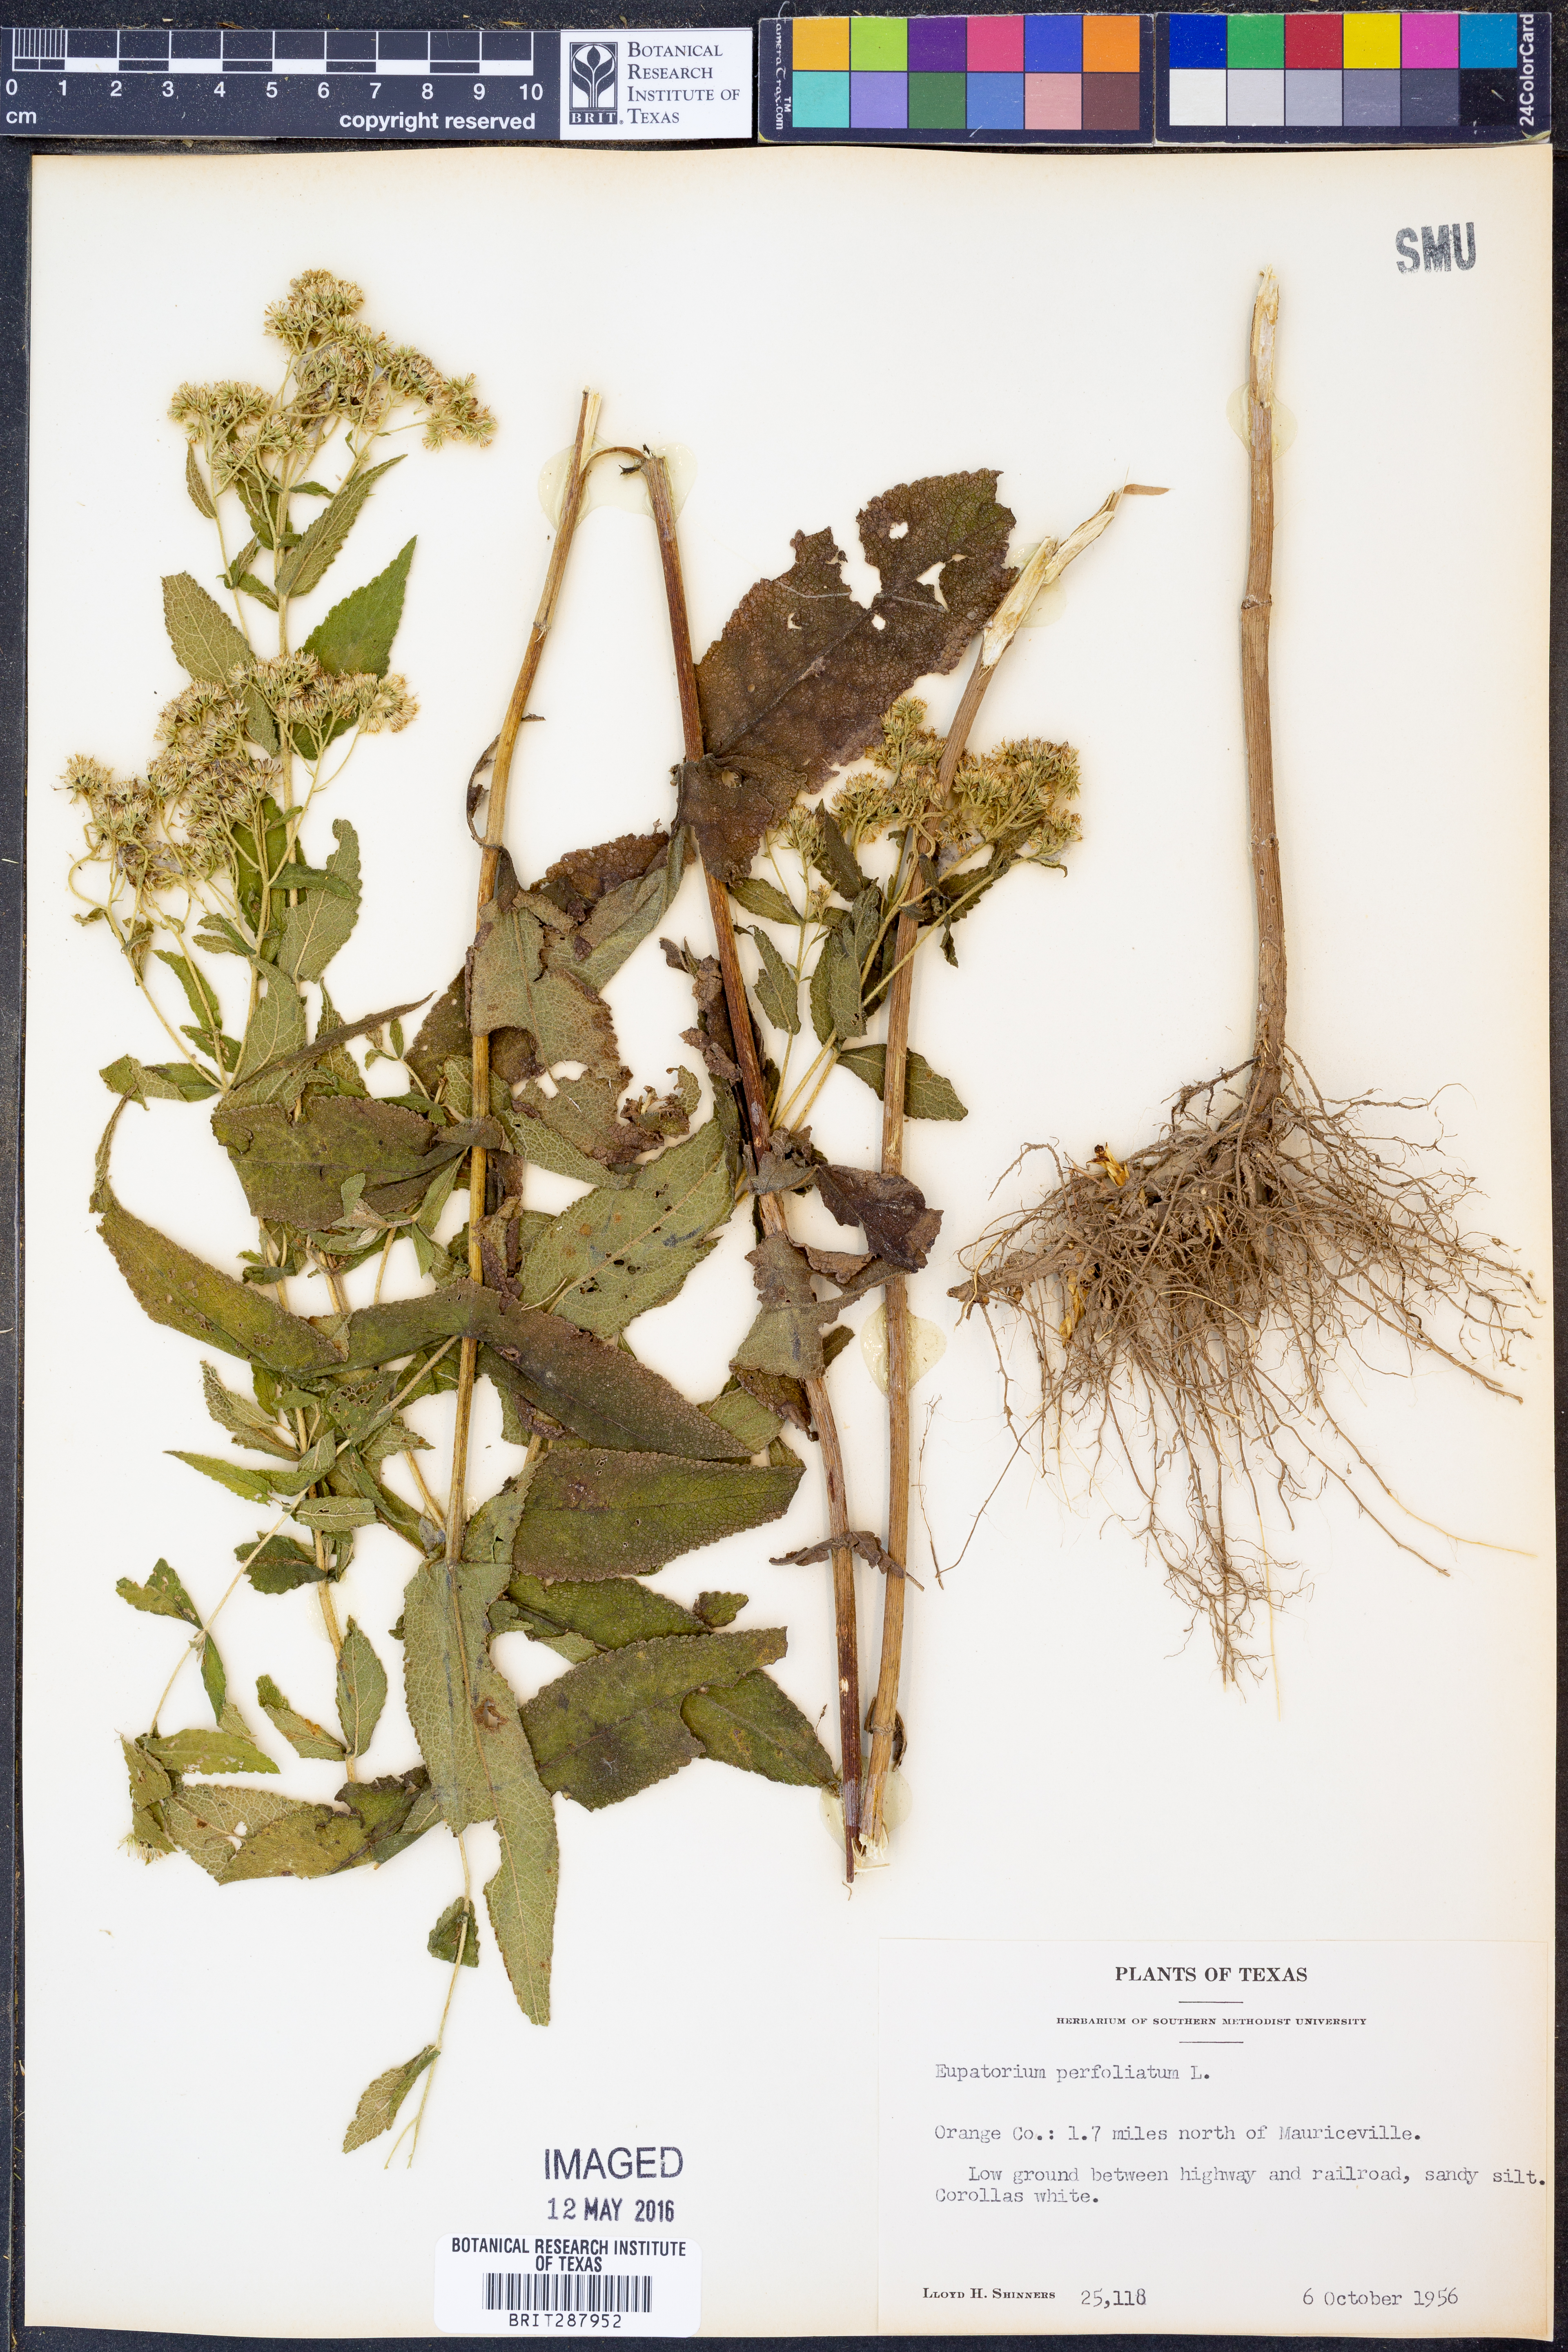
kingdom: Plantae
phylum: Tracheophyta
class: Magnoliopsida
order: Asterales
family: Asteraceae
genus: Eupatorium
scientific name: Eupatorium perfoliatum
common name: Boneset
